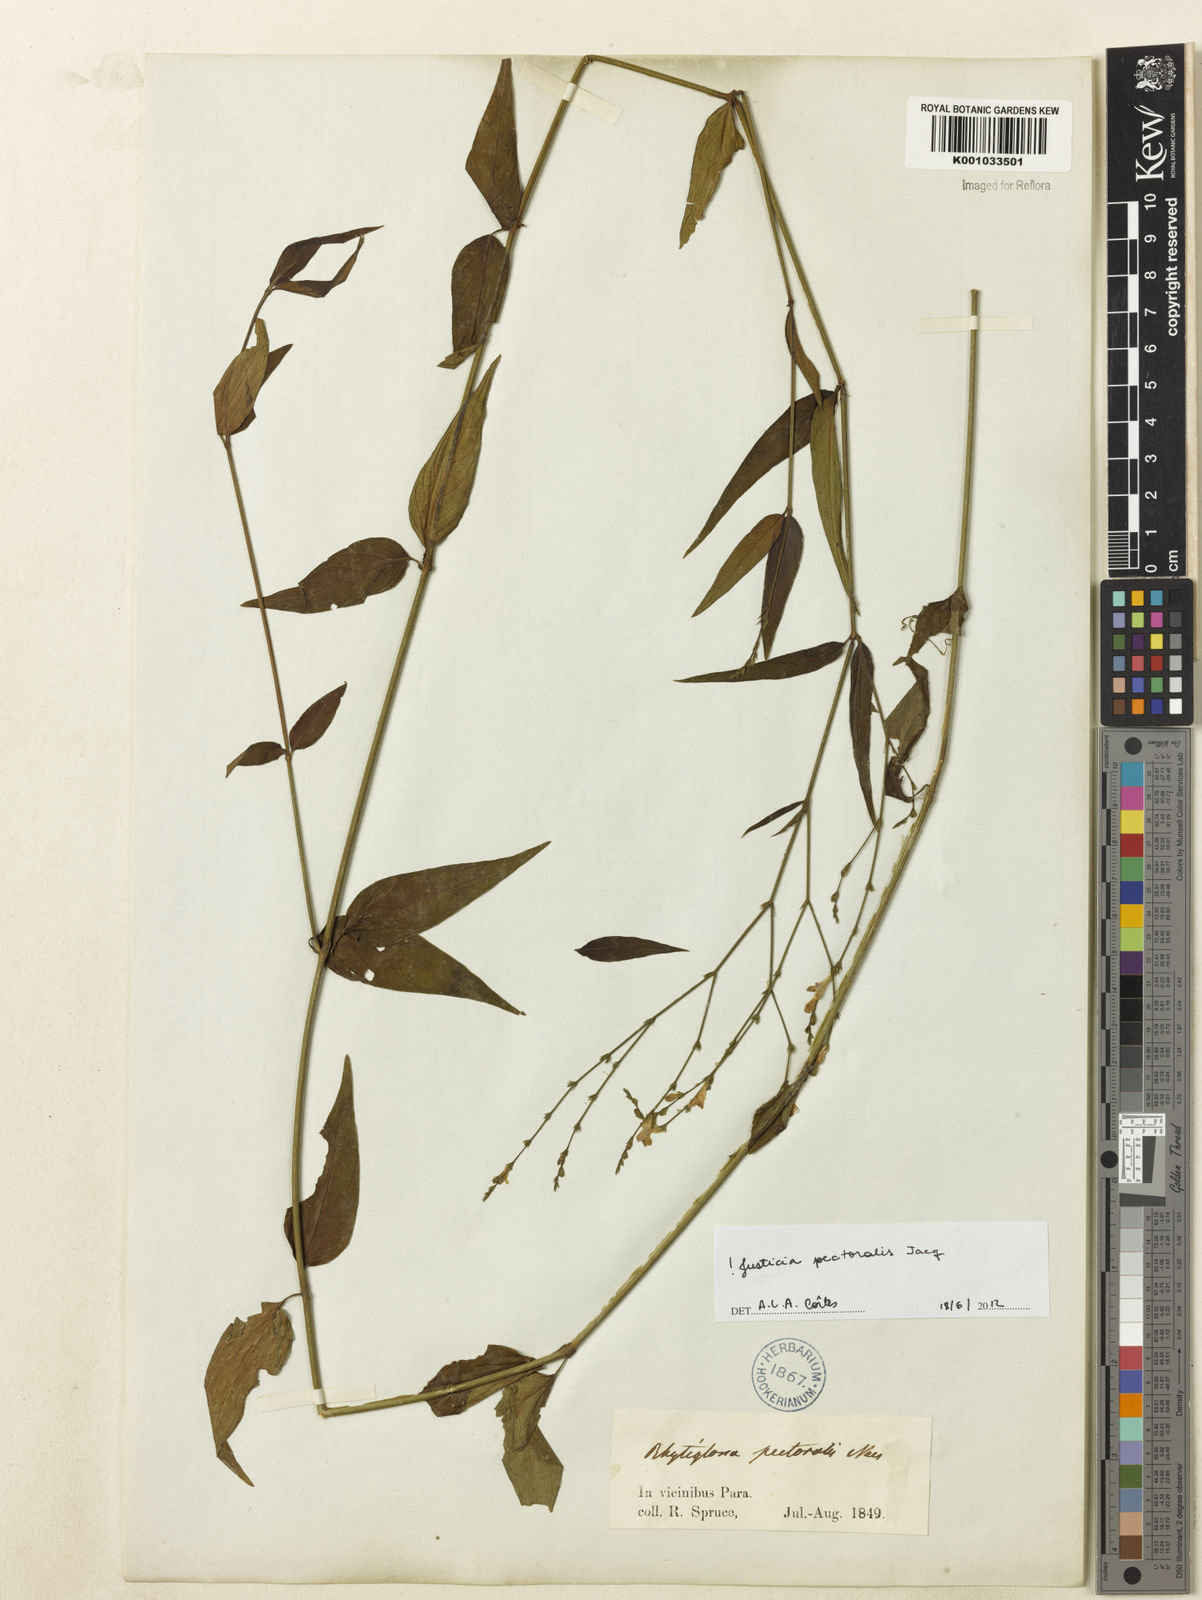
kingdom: Plantae
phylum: Tracheophyta
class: Magnoliopsida
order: Lamiales
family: Acanthaceae
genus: Dianthera
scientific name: Dianthera pectoralis
